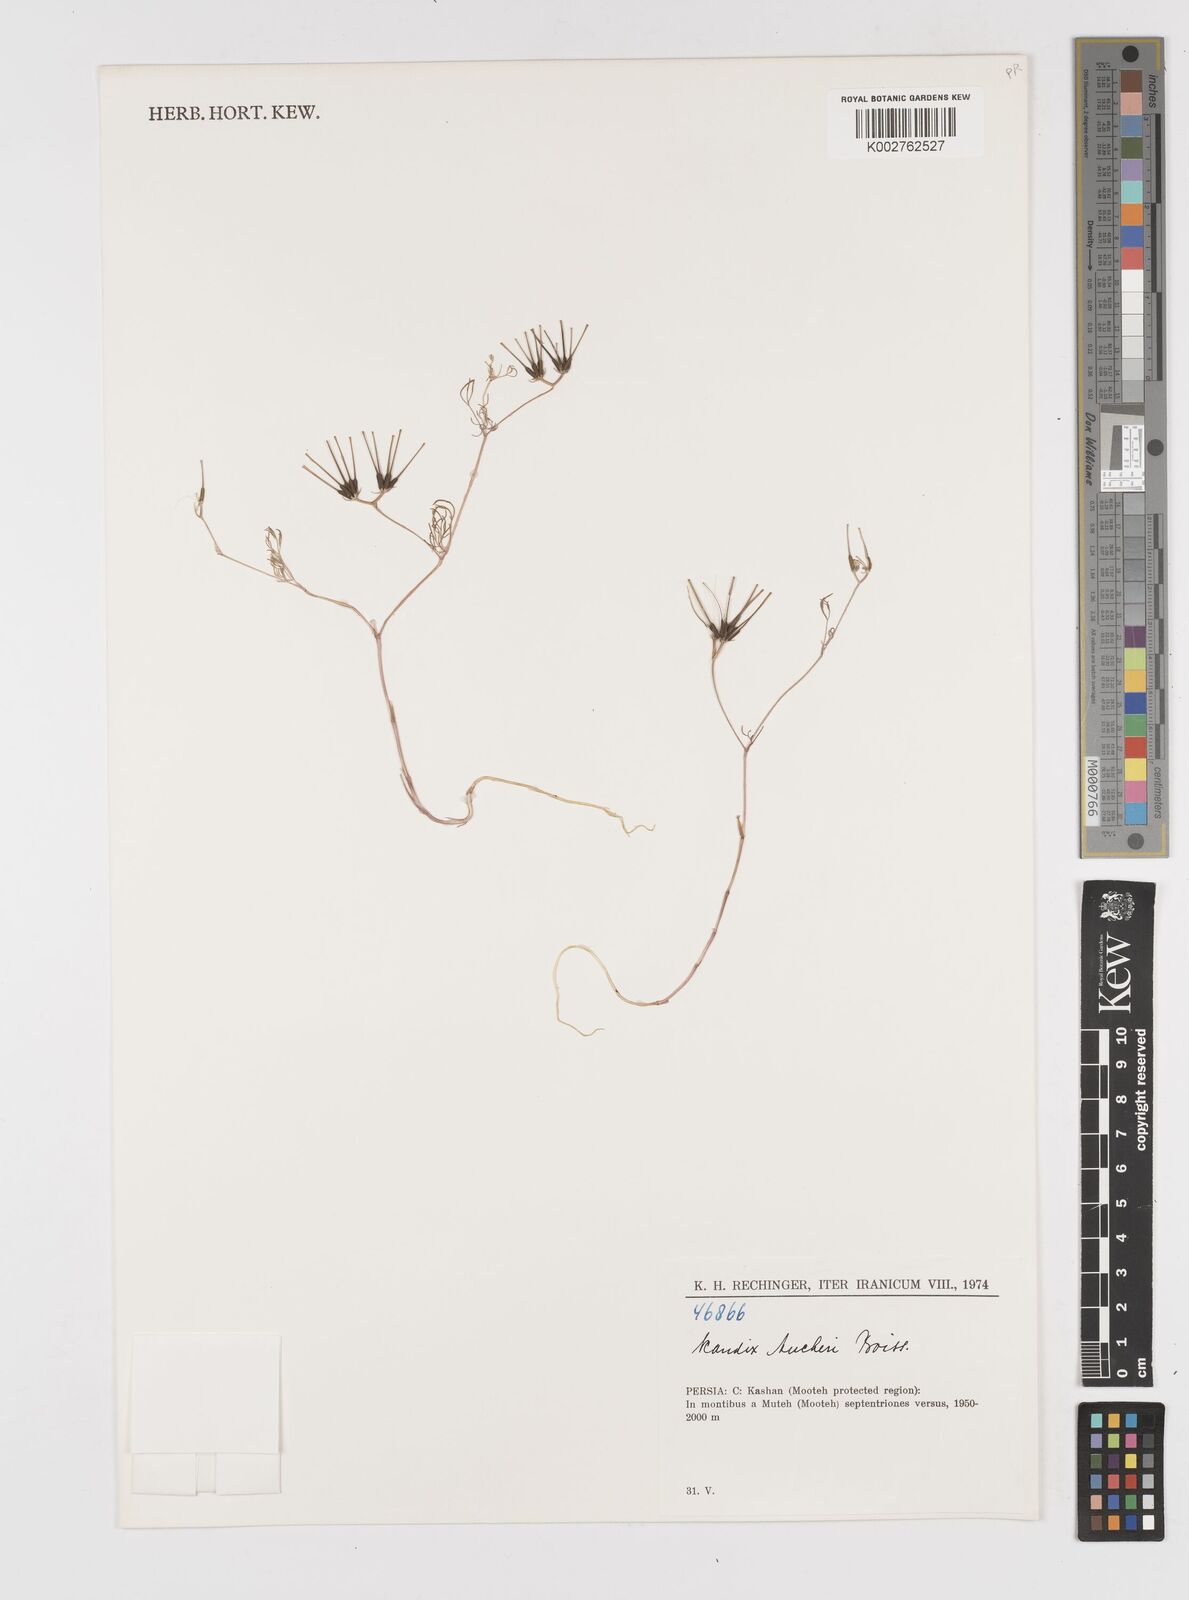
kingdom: Plantae
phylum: Tracheophyta
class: Magnoliopsida
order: Apiales
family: Apiaceae
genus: Scandix
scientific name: Scandix aucheri
